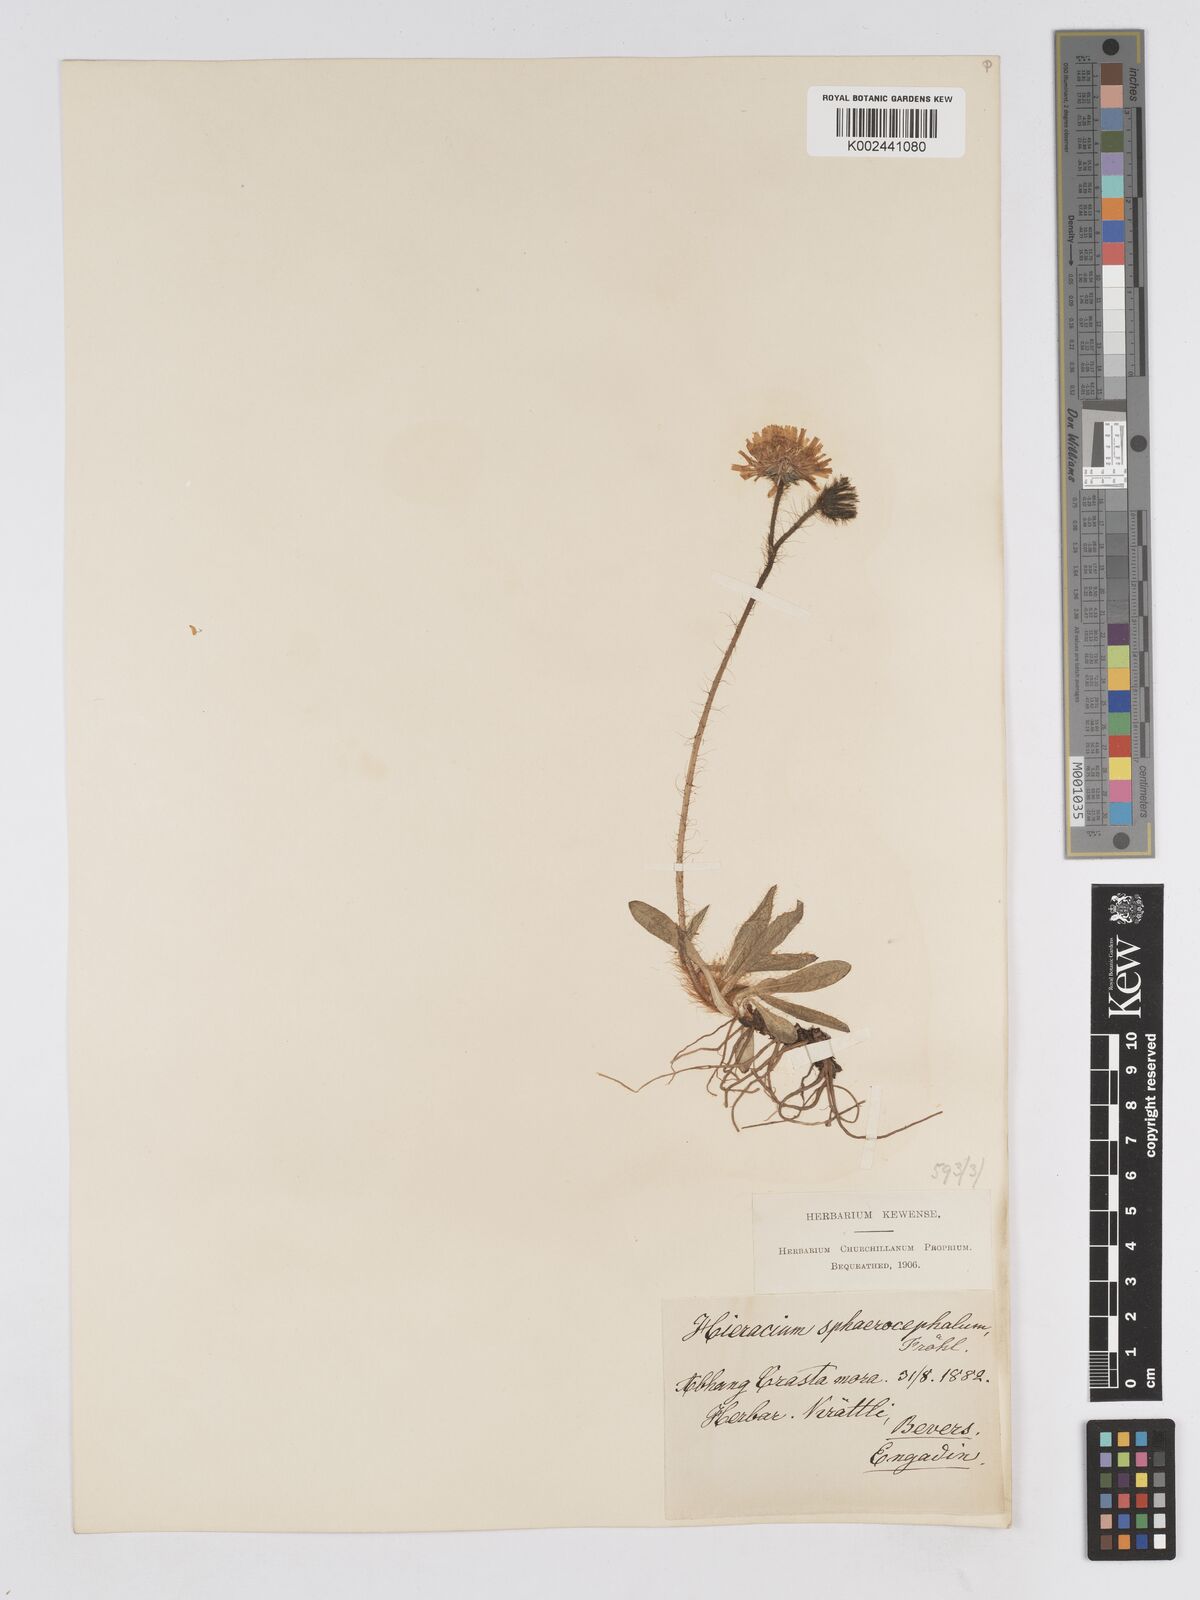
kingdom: Plantae
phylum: Tracheophyta
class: Magnoliopsida
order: Asterales
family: Asteraceae
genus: Pilosella
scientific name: Pilosella sphaerocephala
